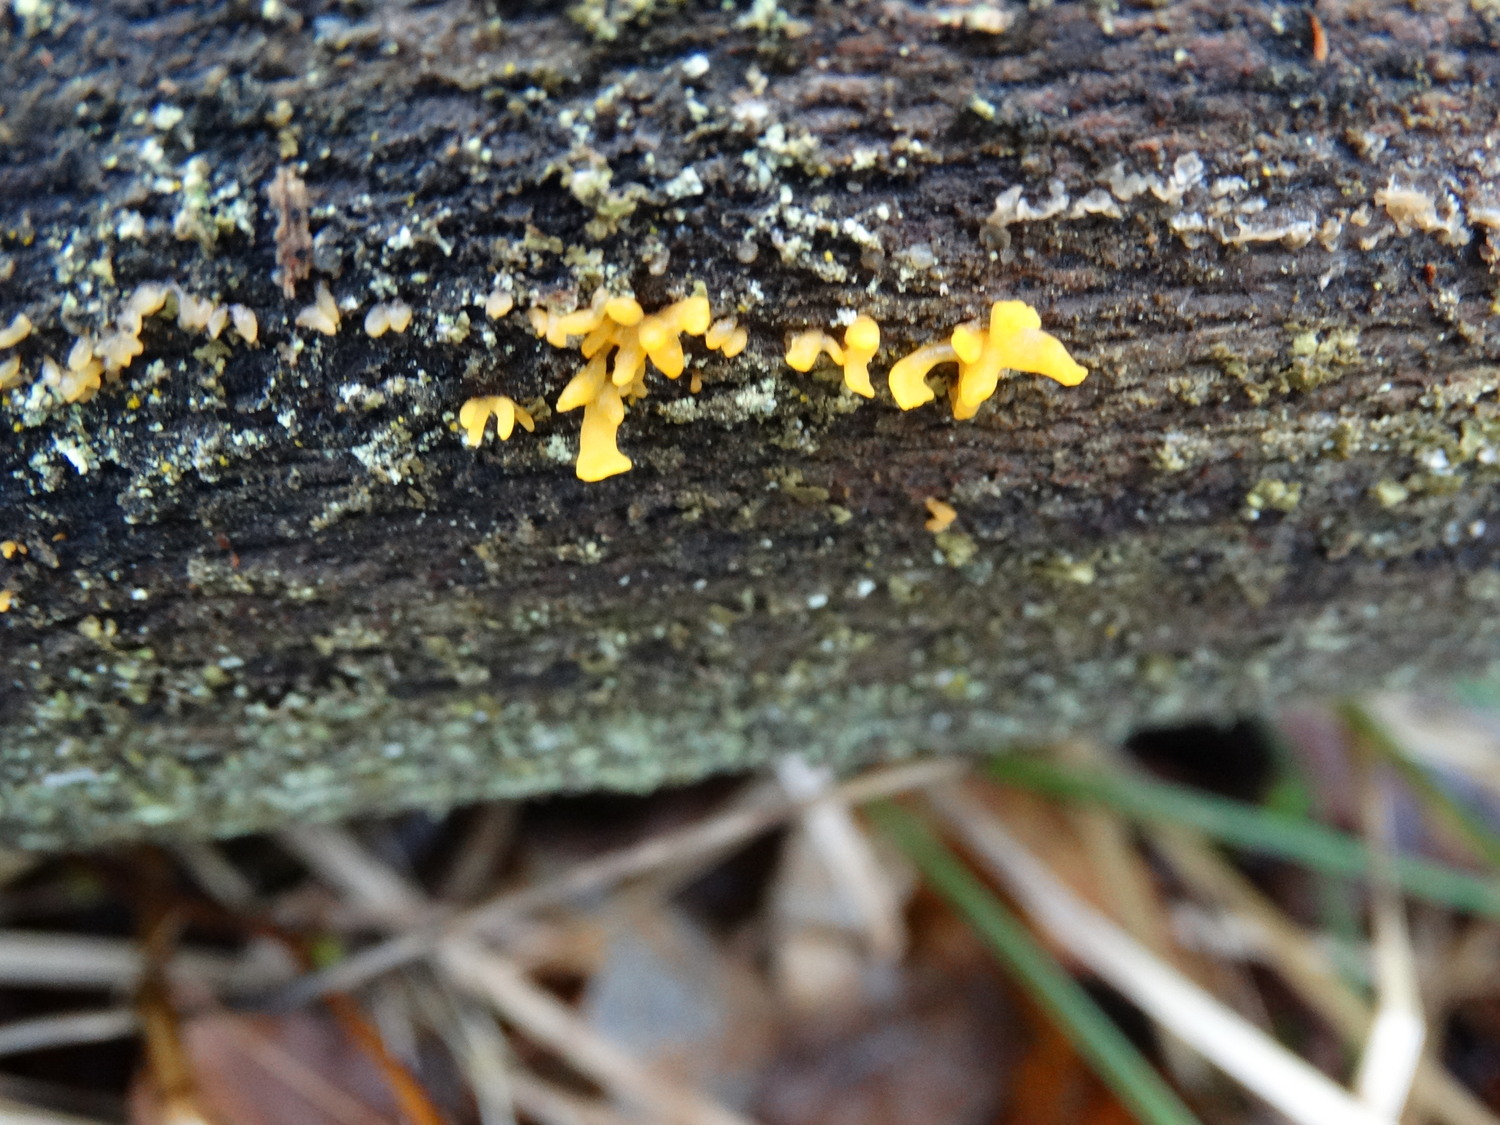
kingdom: Fungi
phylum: Basidiomycota
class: Dacrymycetes
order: Dacrymycetales
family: Dacrymycetaceae
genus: Calocera
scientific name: Calocera cornea
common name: liden guldgaffel
